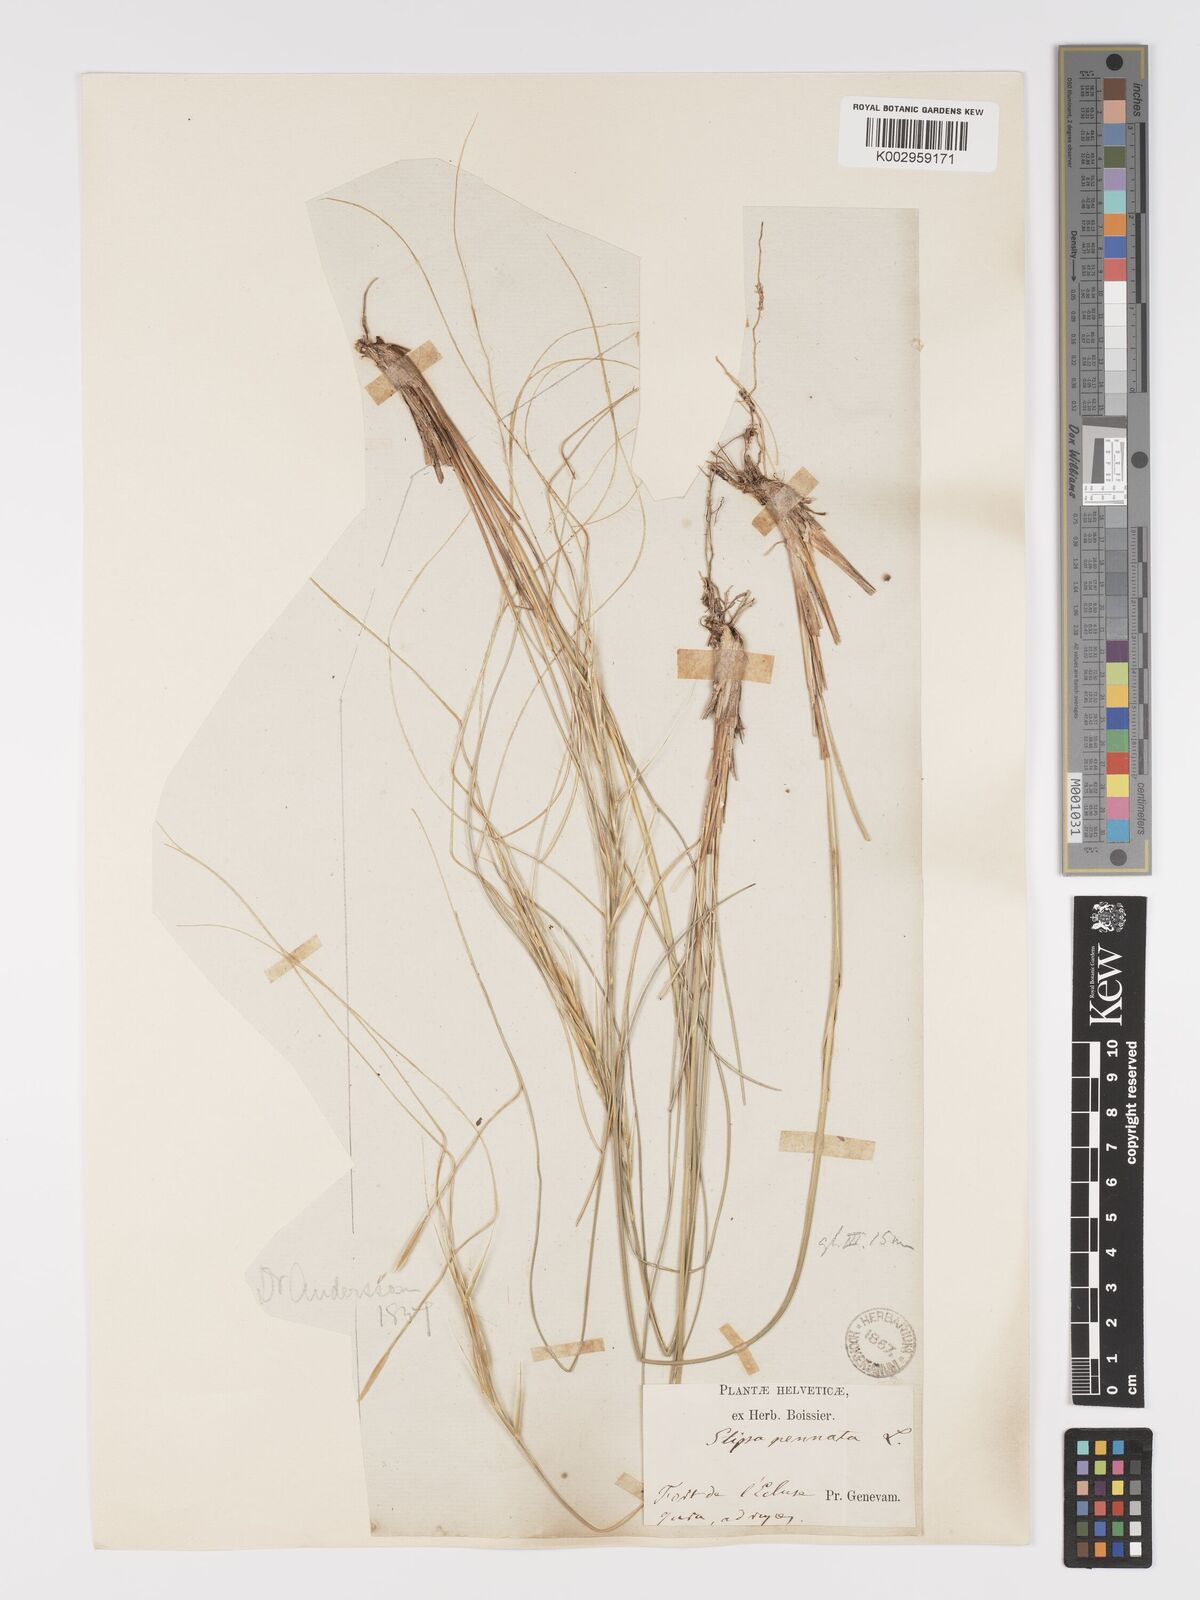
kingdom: Plantae
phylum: Tracheophyta
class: Liliopsida
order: Poales
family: Poaceae
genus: Stipa
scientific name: Stipa pennata
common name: European feather grass
